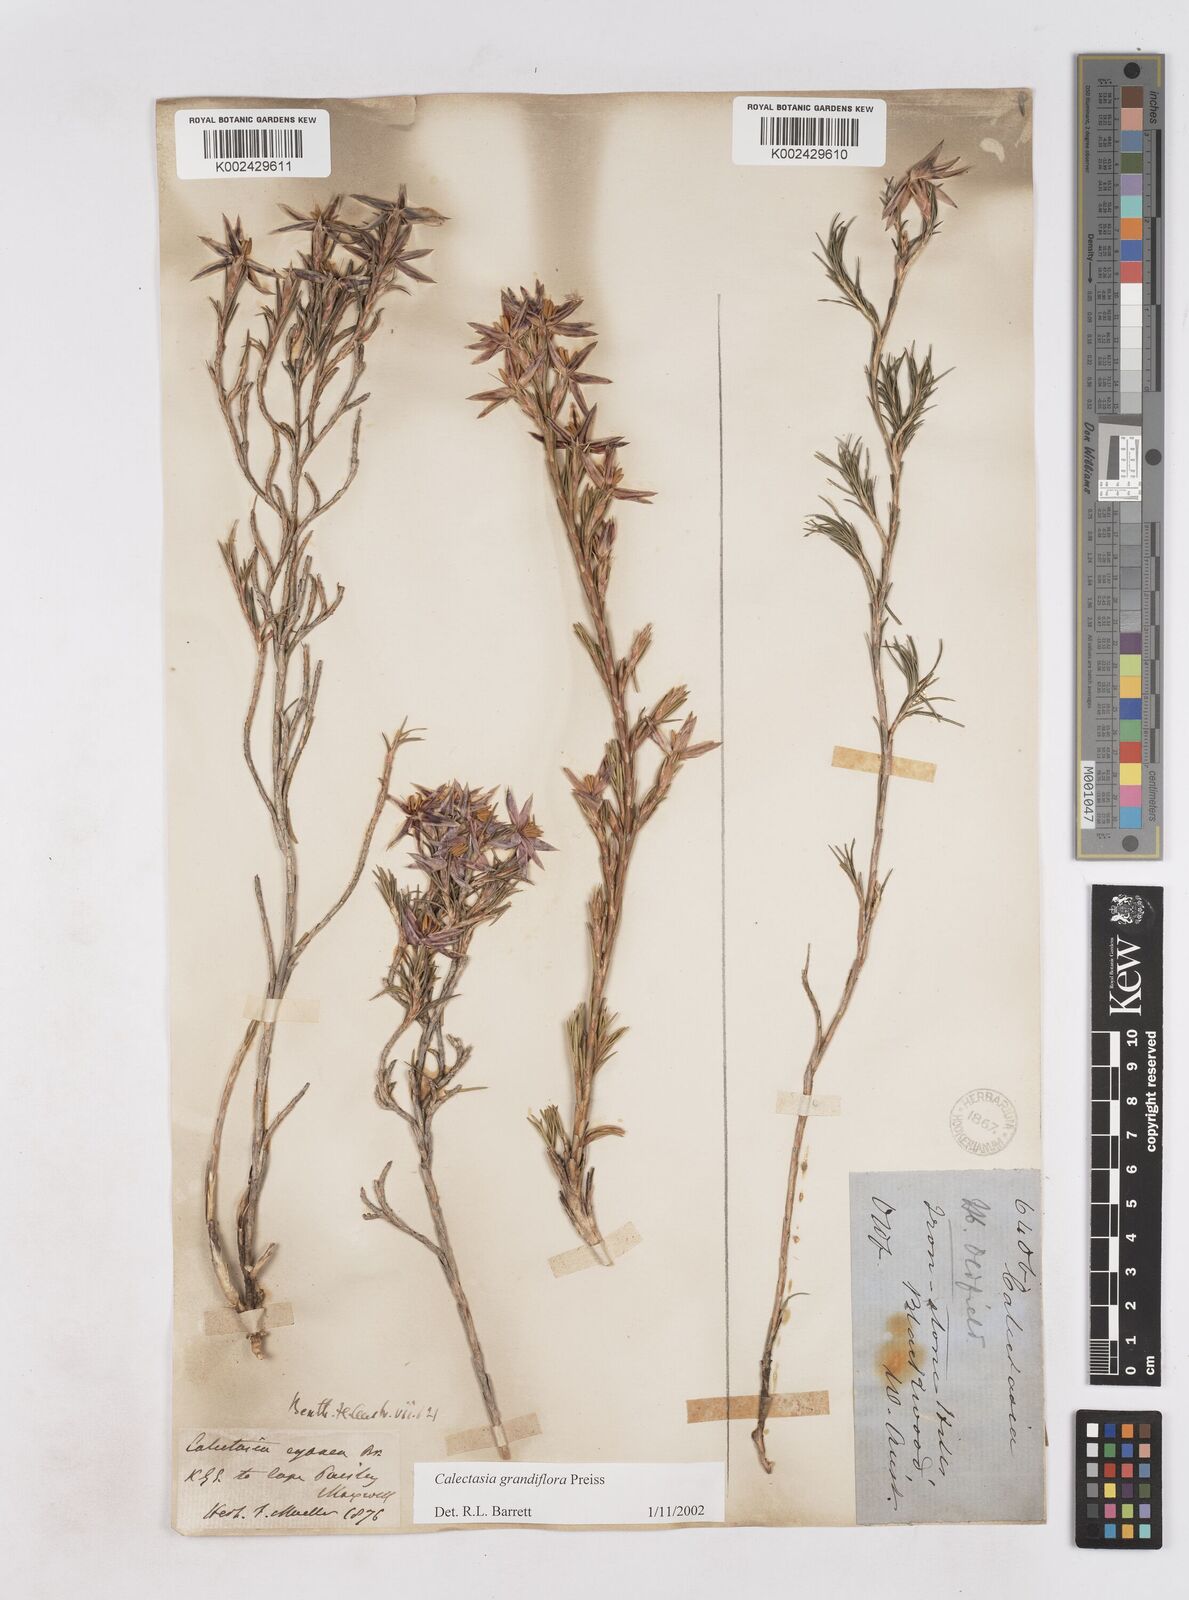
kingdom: Plantae
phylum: Tracheophyta
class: Liliopsida
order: Arecales
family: Dasypogonaceae
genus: Calectasia
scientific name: Calectasia grandiflora
